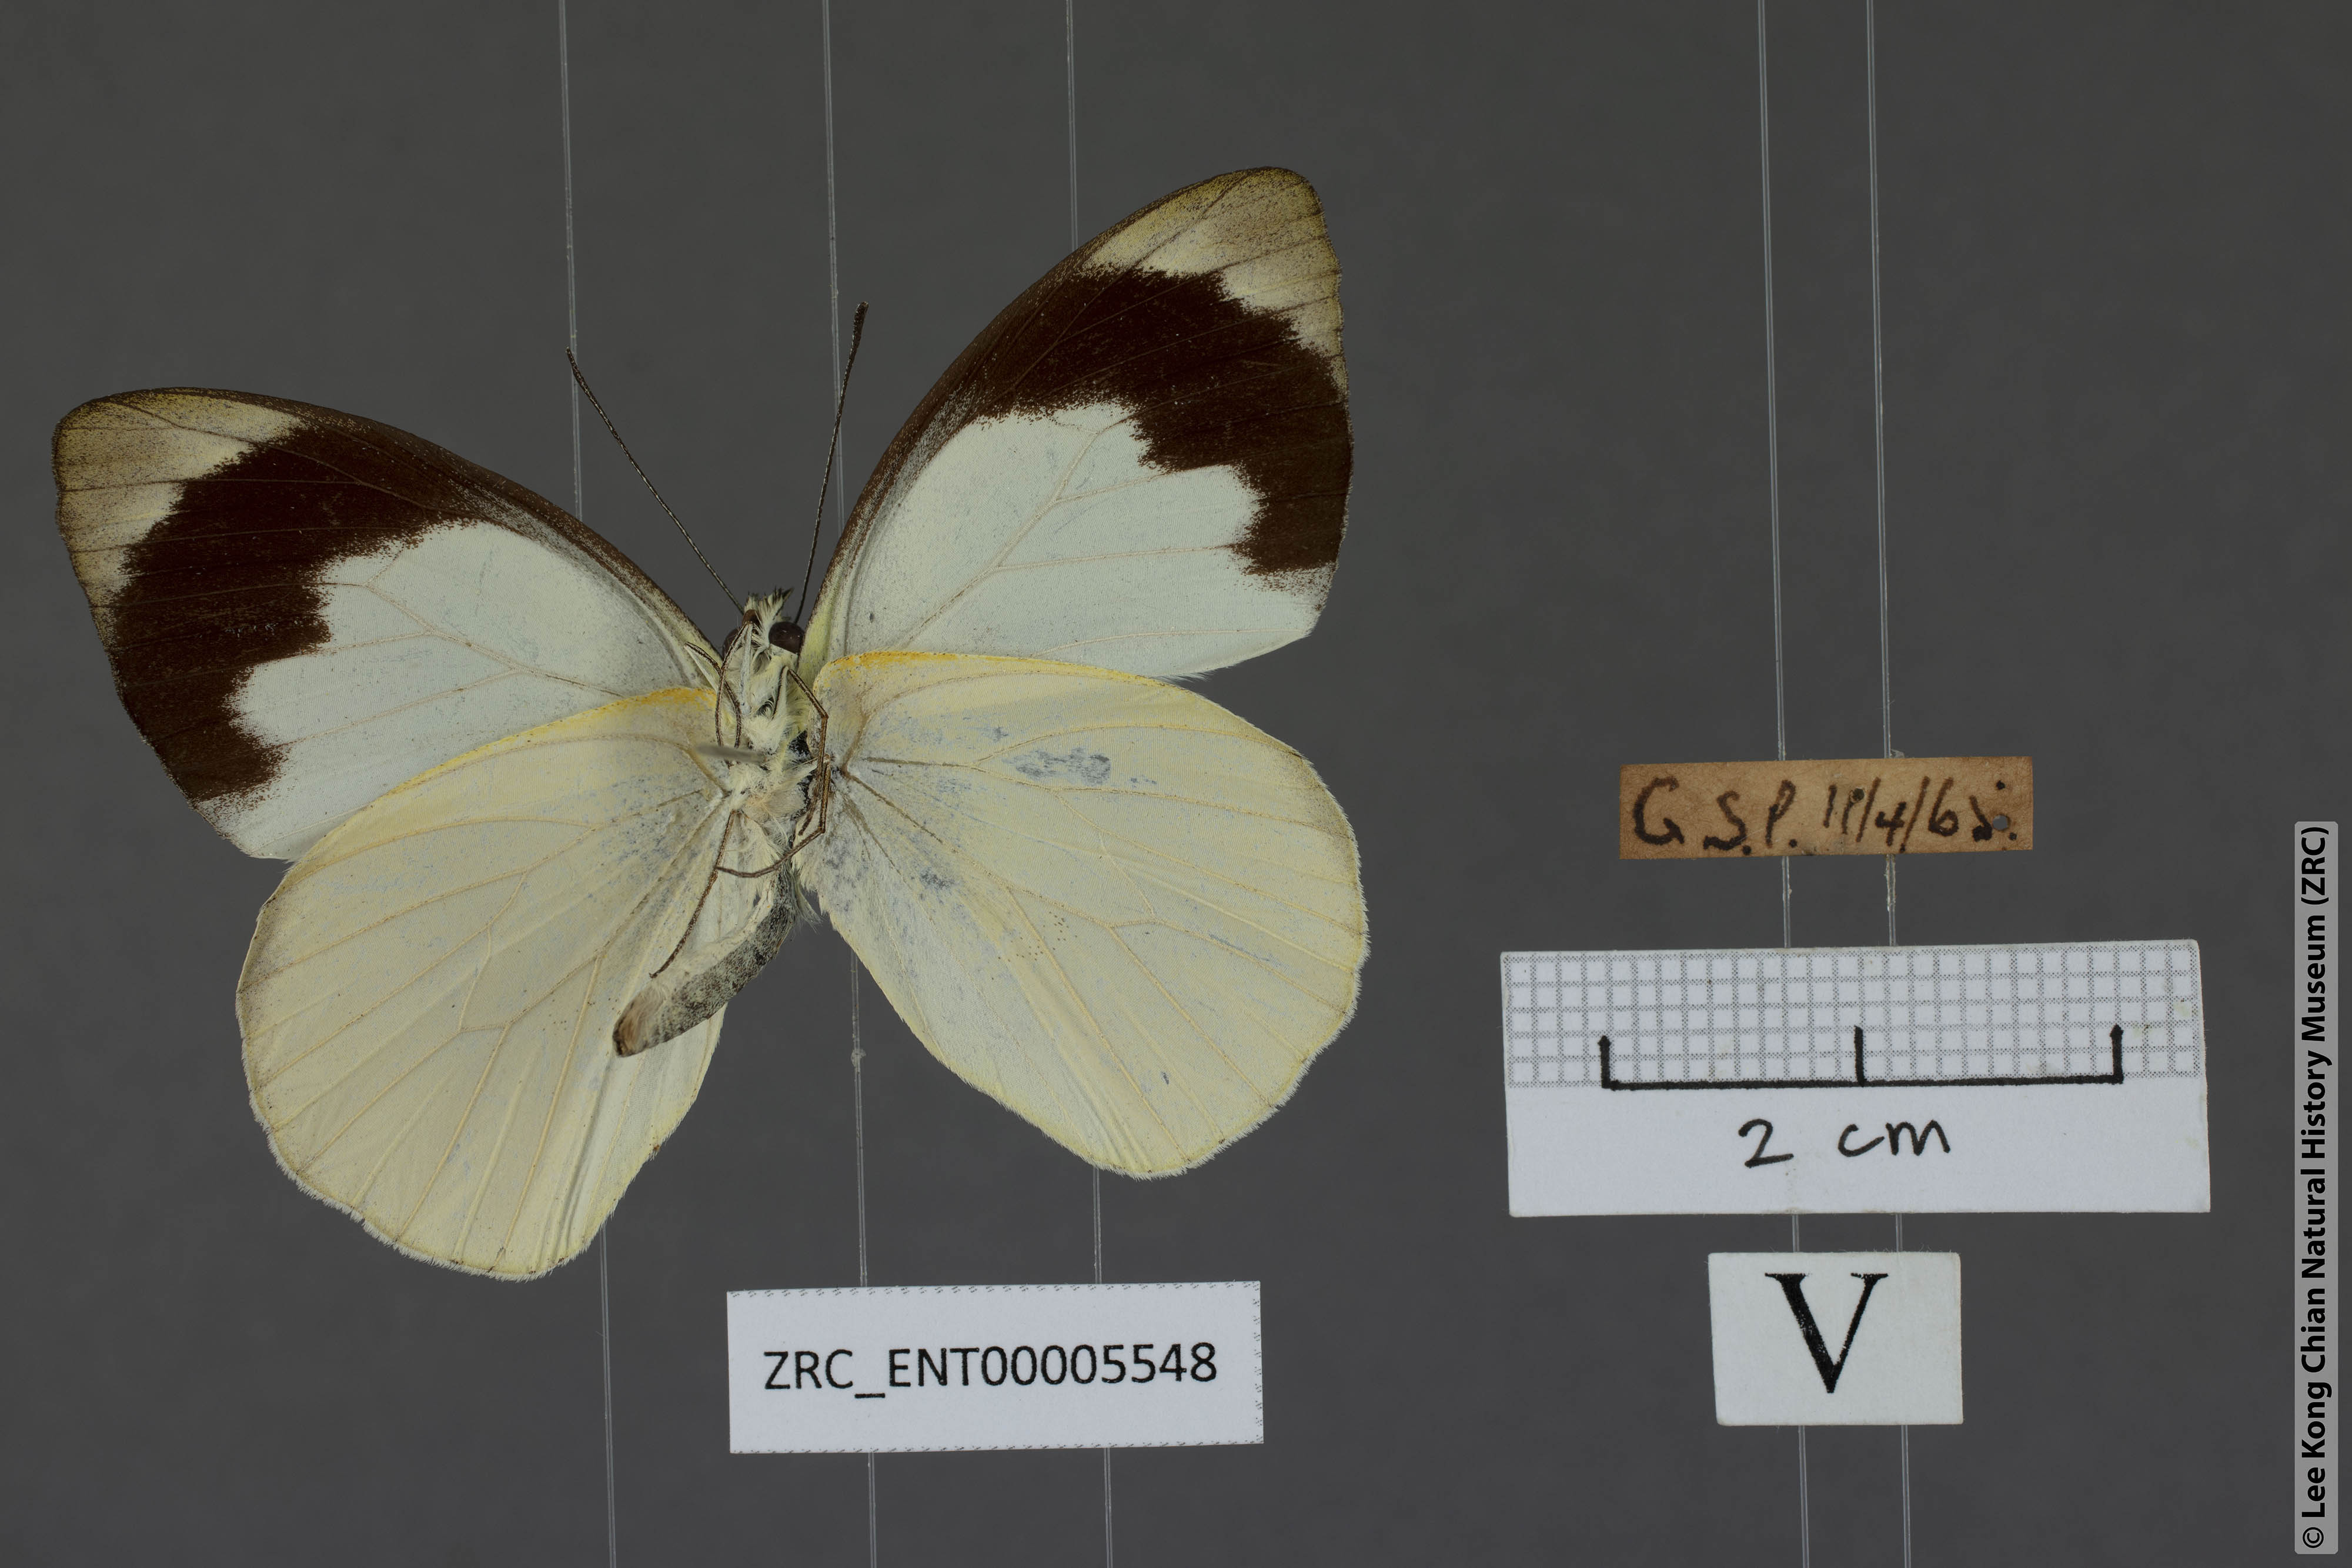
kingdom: Animalia
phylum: Arthropoda
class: Insecta
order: Lepidoptera
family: Pieridae
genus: Appias
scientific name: Appias indra
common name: Plain puffin
